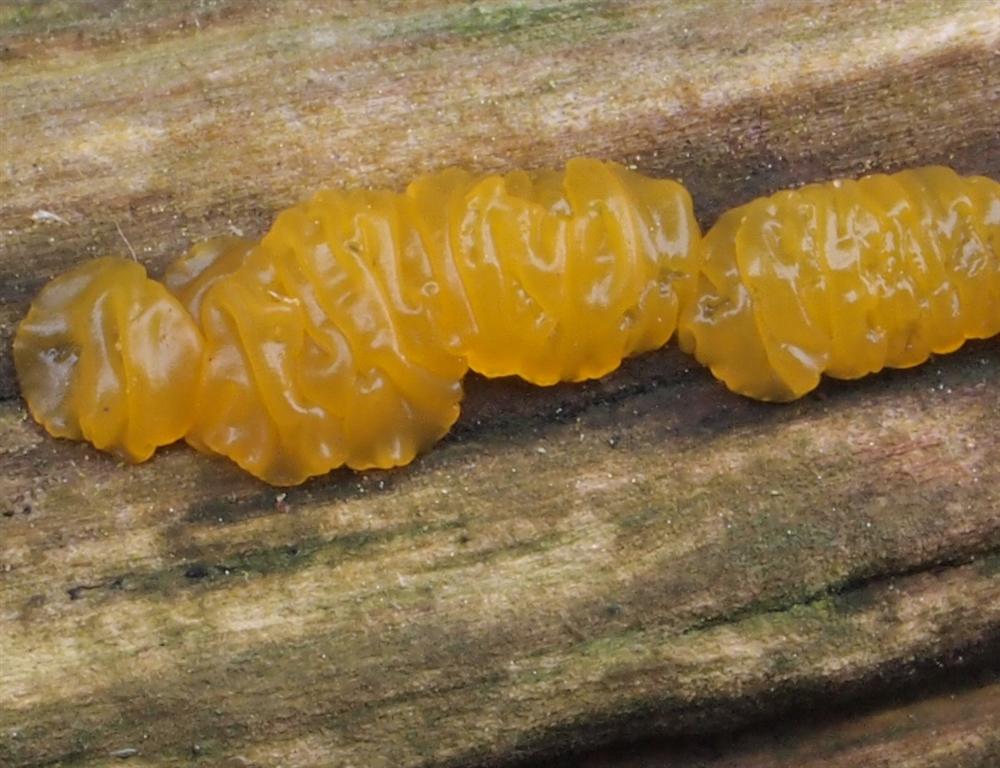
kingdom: Fungi
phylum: Basidiomycota
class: Dacrymycetes
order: Dacrymycetales
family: Dacrymycetaceae
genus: Dacrymyces
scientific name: Dacrymyces lacrymalis
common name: rynket tåresvamp
